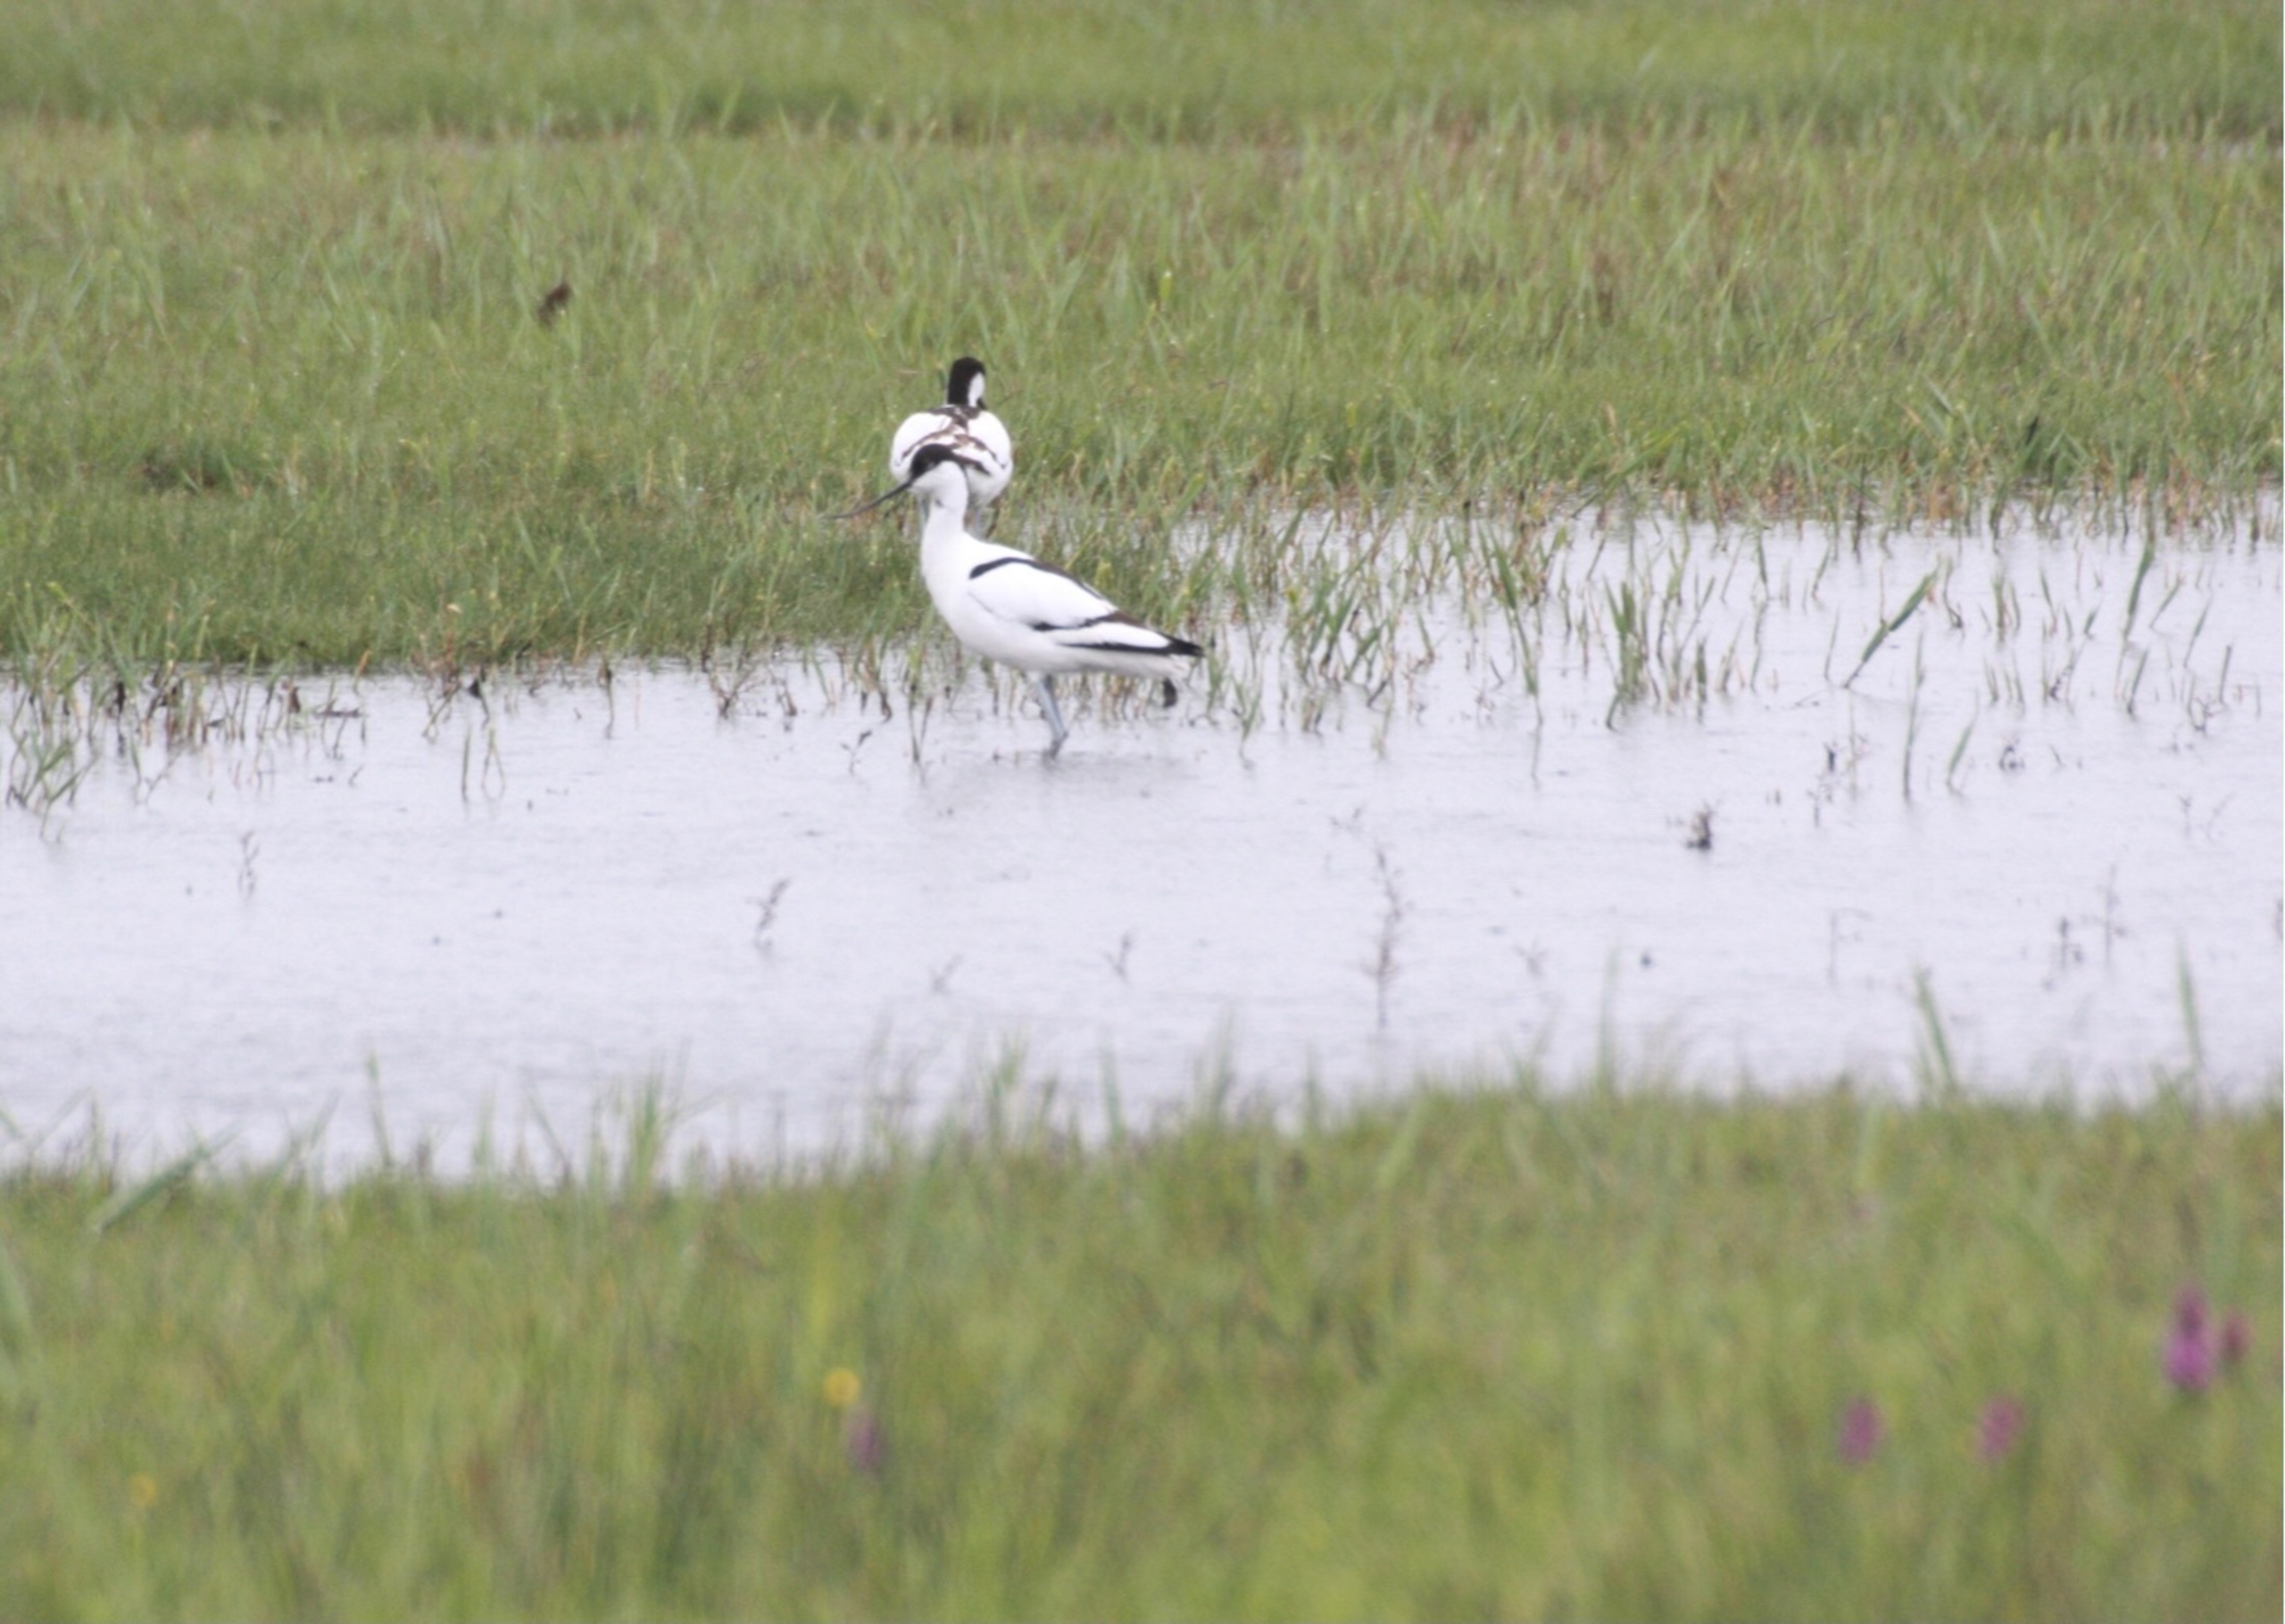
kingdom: Animalia
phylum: Chordata
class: Aves
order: Charadriiformes
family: Recurvirostridae
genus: Recurvirostra
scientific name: Recurvirostra avosetta
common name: Klyde
